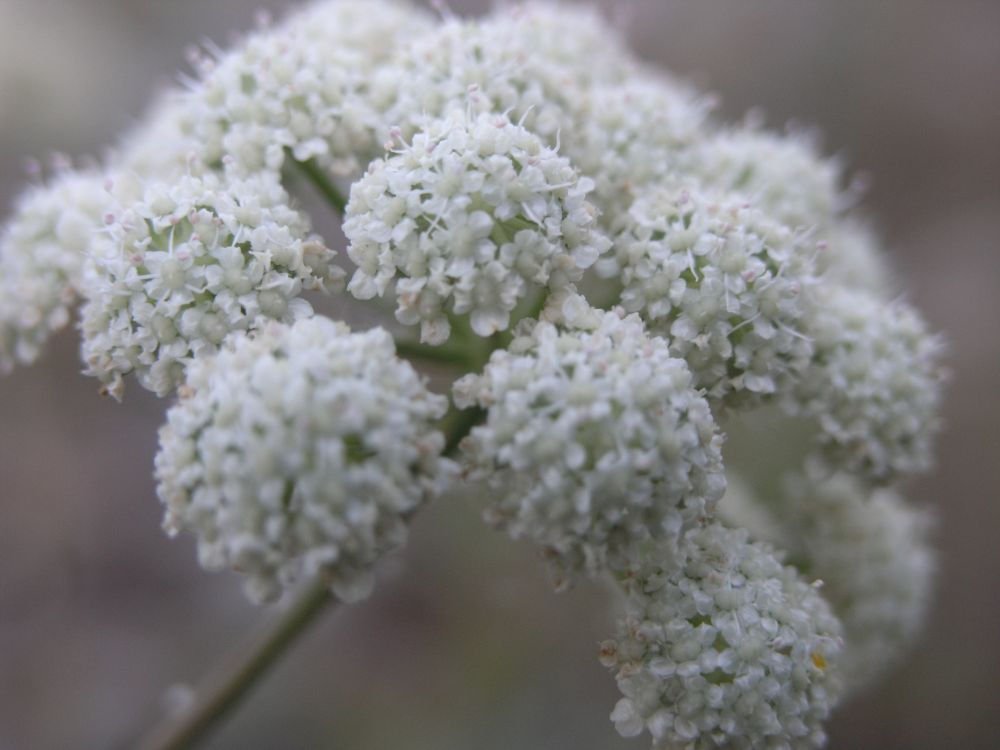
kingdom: Plantae
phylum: Tracheophyta
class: Magnoliopsida
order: Apiales
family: Apiaceae
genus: Seseli
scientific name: Seseli buchtormense
